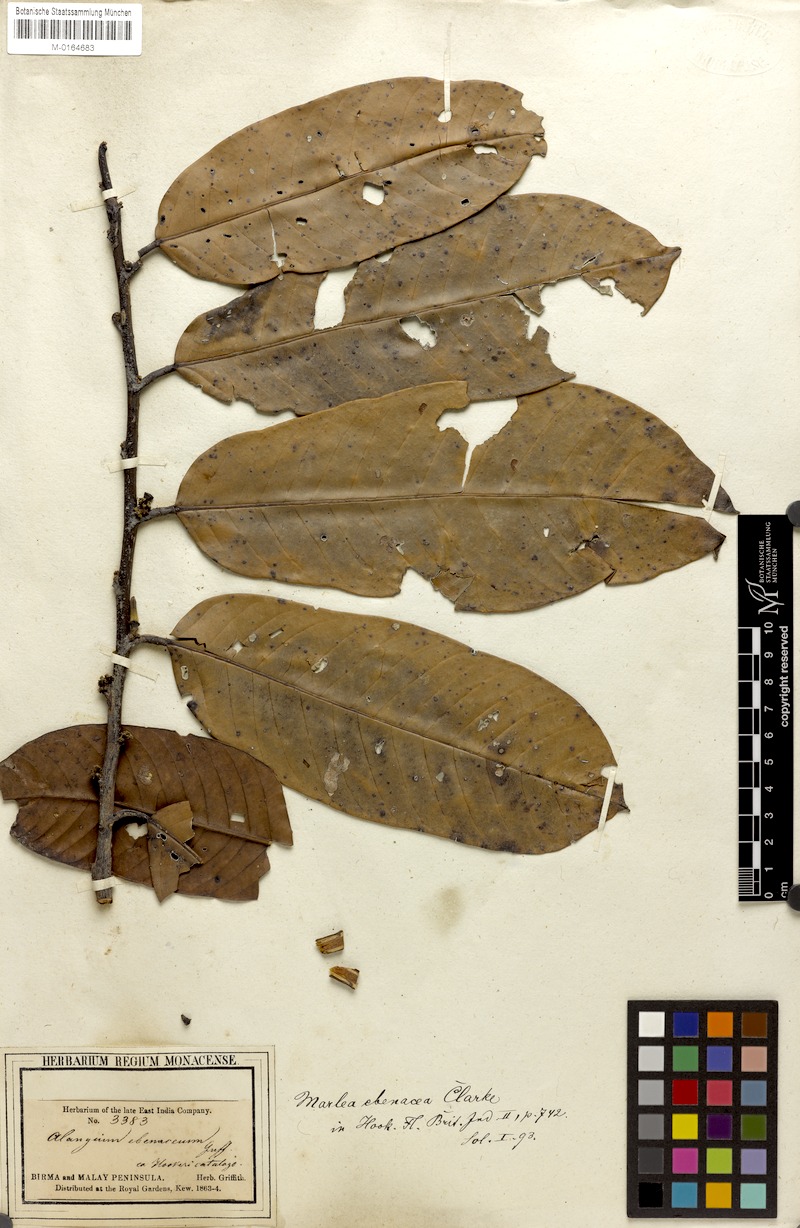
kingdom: Plantae
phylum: Tracheophyta
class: Magnoliopsida
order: Cornales
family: Cornaceae
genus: Alangium
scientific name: Alangium ebenaceum
